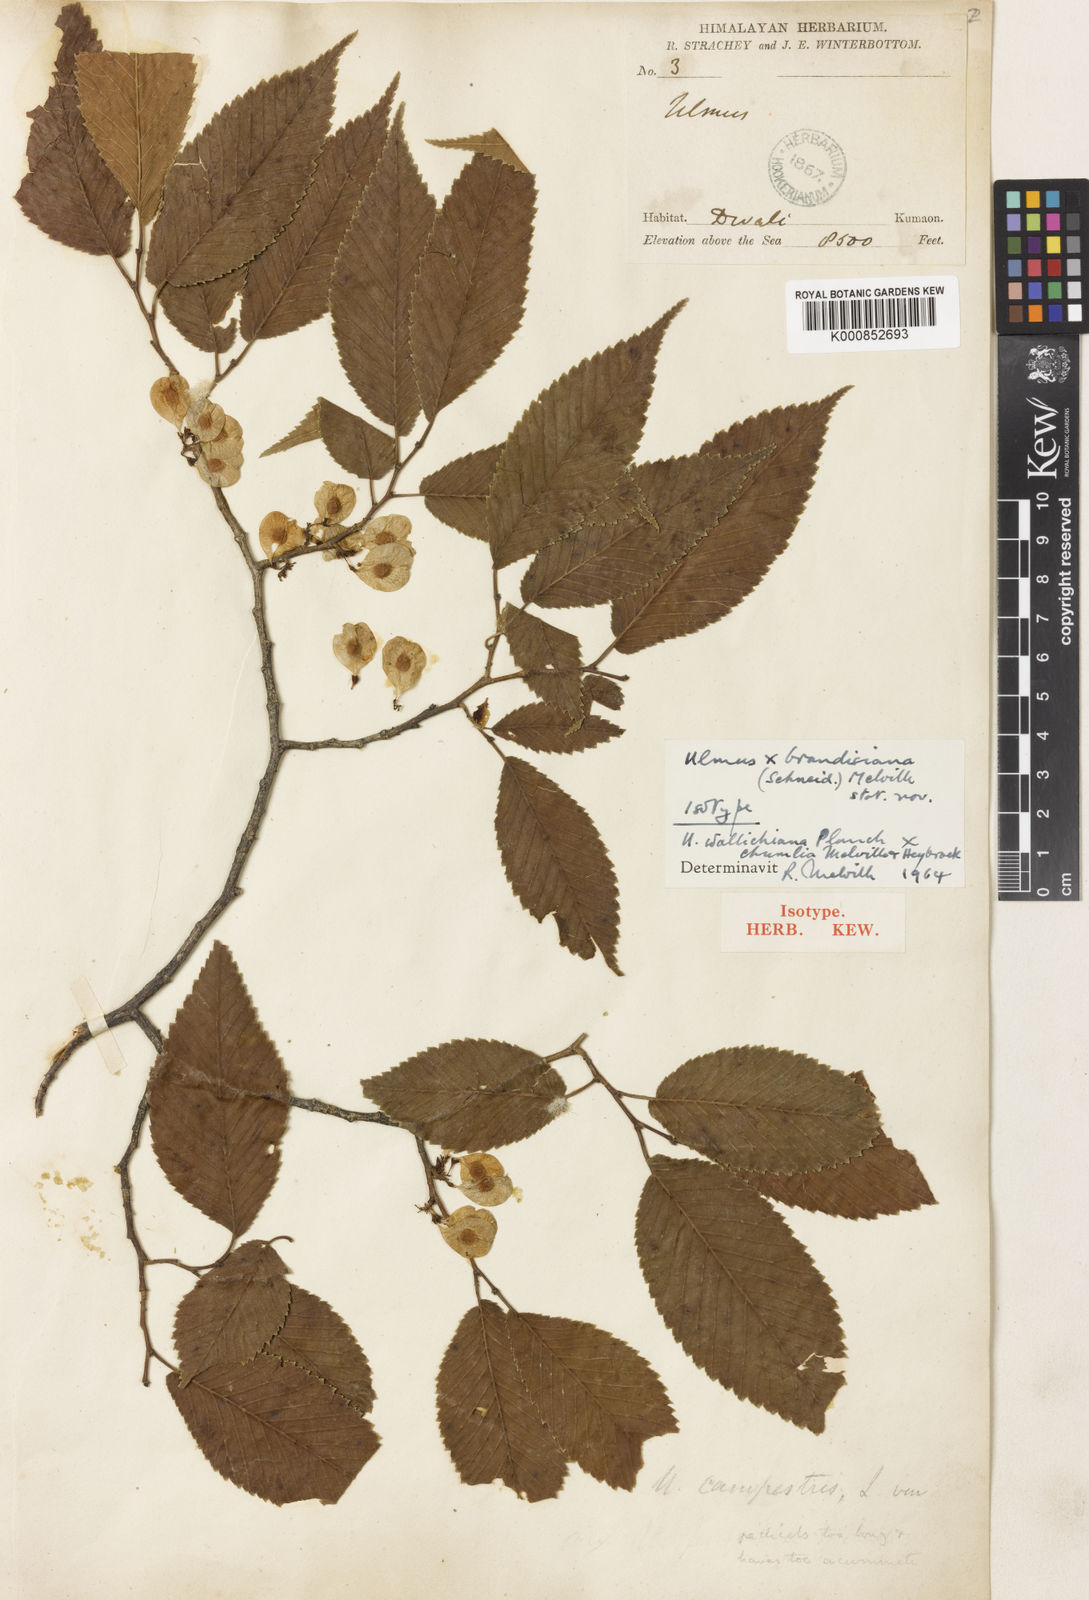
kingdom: Plantae
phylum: Tracheophyta
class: Magnoliopsida
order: Rosales
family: Ulmaceae
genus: Ulmus
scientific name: Ulmus brandisiana
